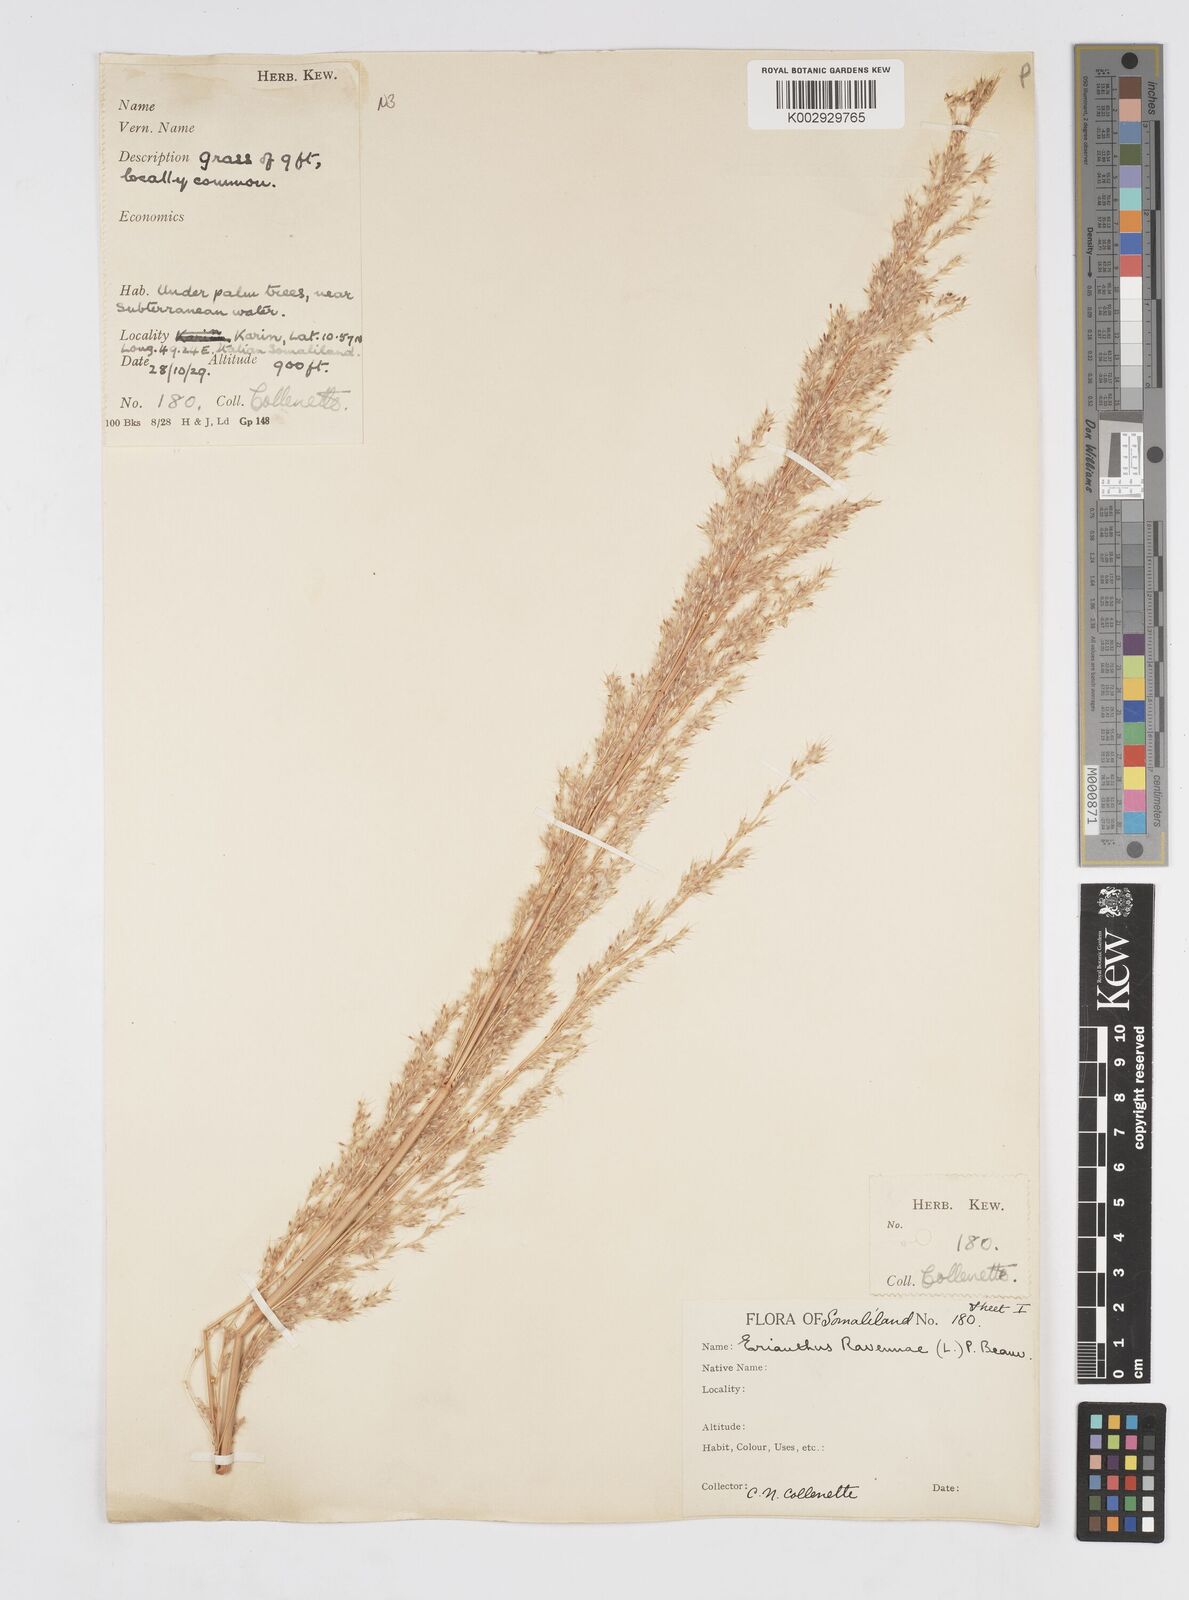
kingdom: Plantae
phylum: Tracheophyta
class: Liliopsida
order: Poales
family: Poaceae
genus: Tripidium
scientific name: Tripidium ravennae
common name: Ravenna grass
